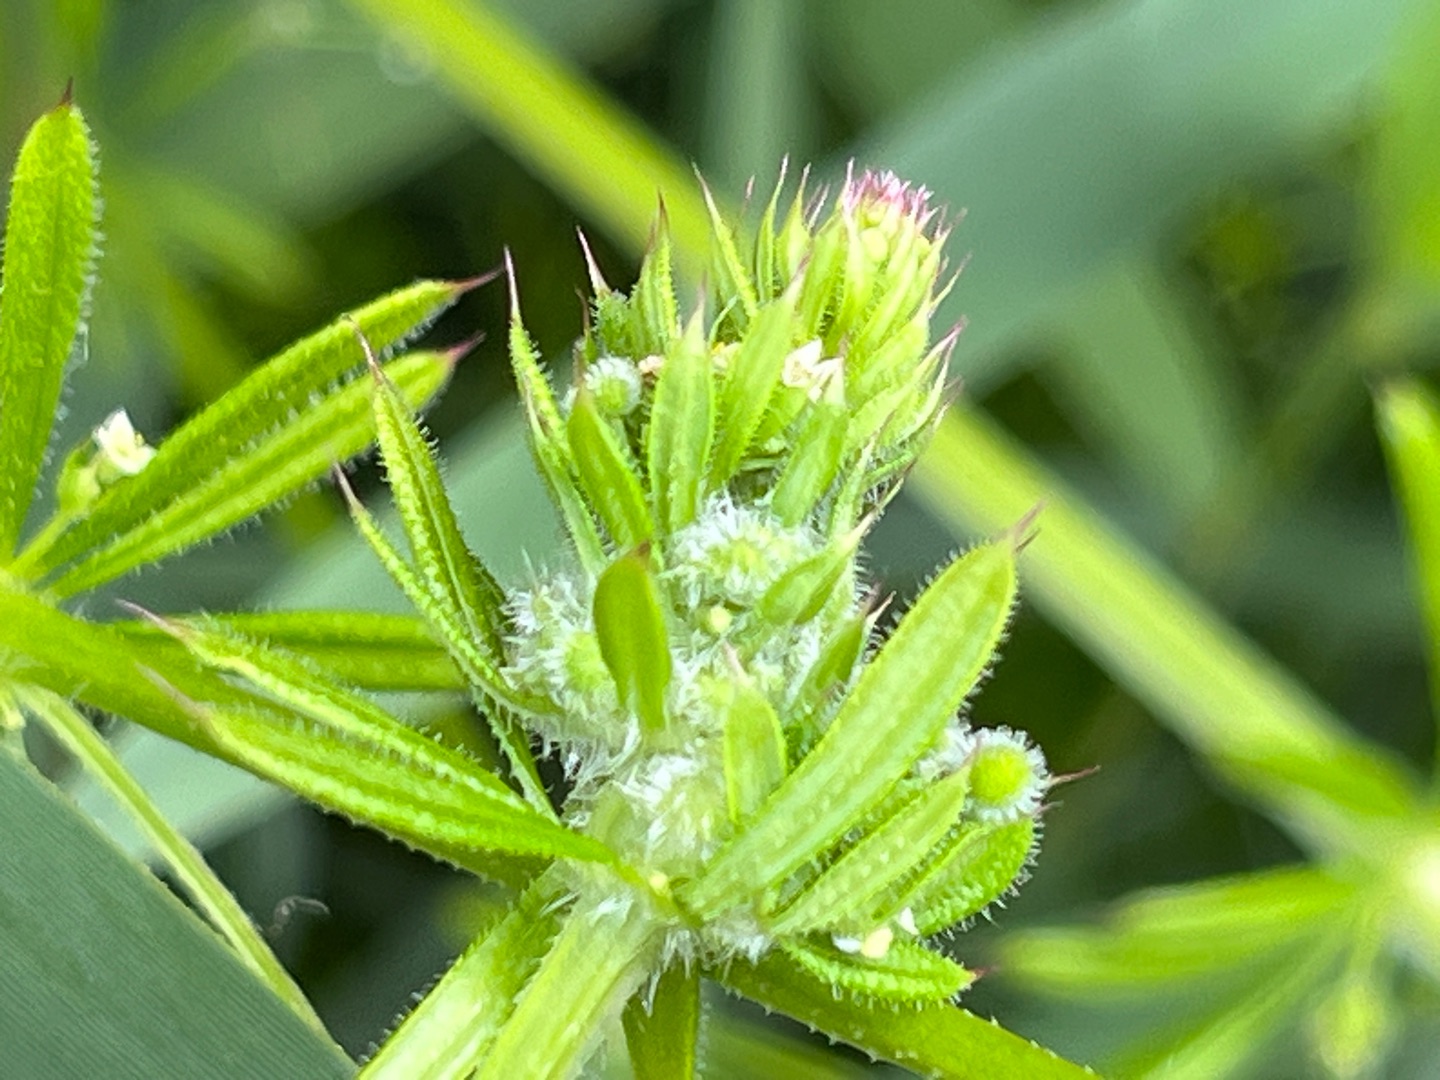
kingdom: Animalia
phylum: Arthropoda
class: Insecta
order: Diptera
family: Cecidomyiidae
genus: Dasineura
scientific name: Dasineura aparines
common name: Burresnerregalmyg
